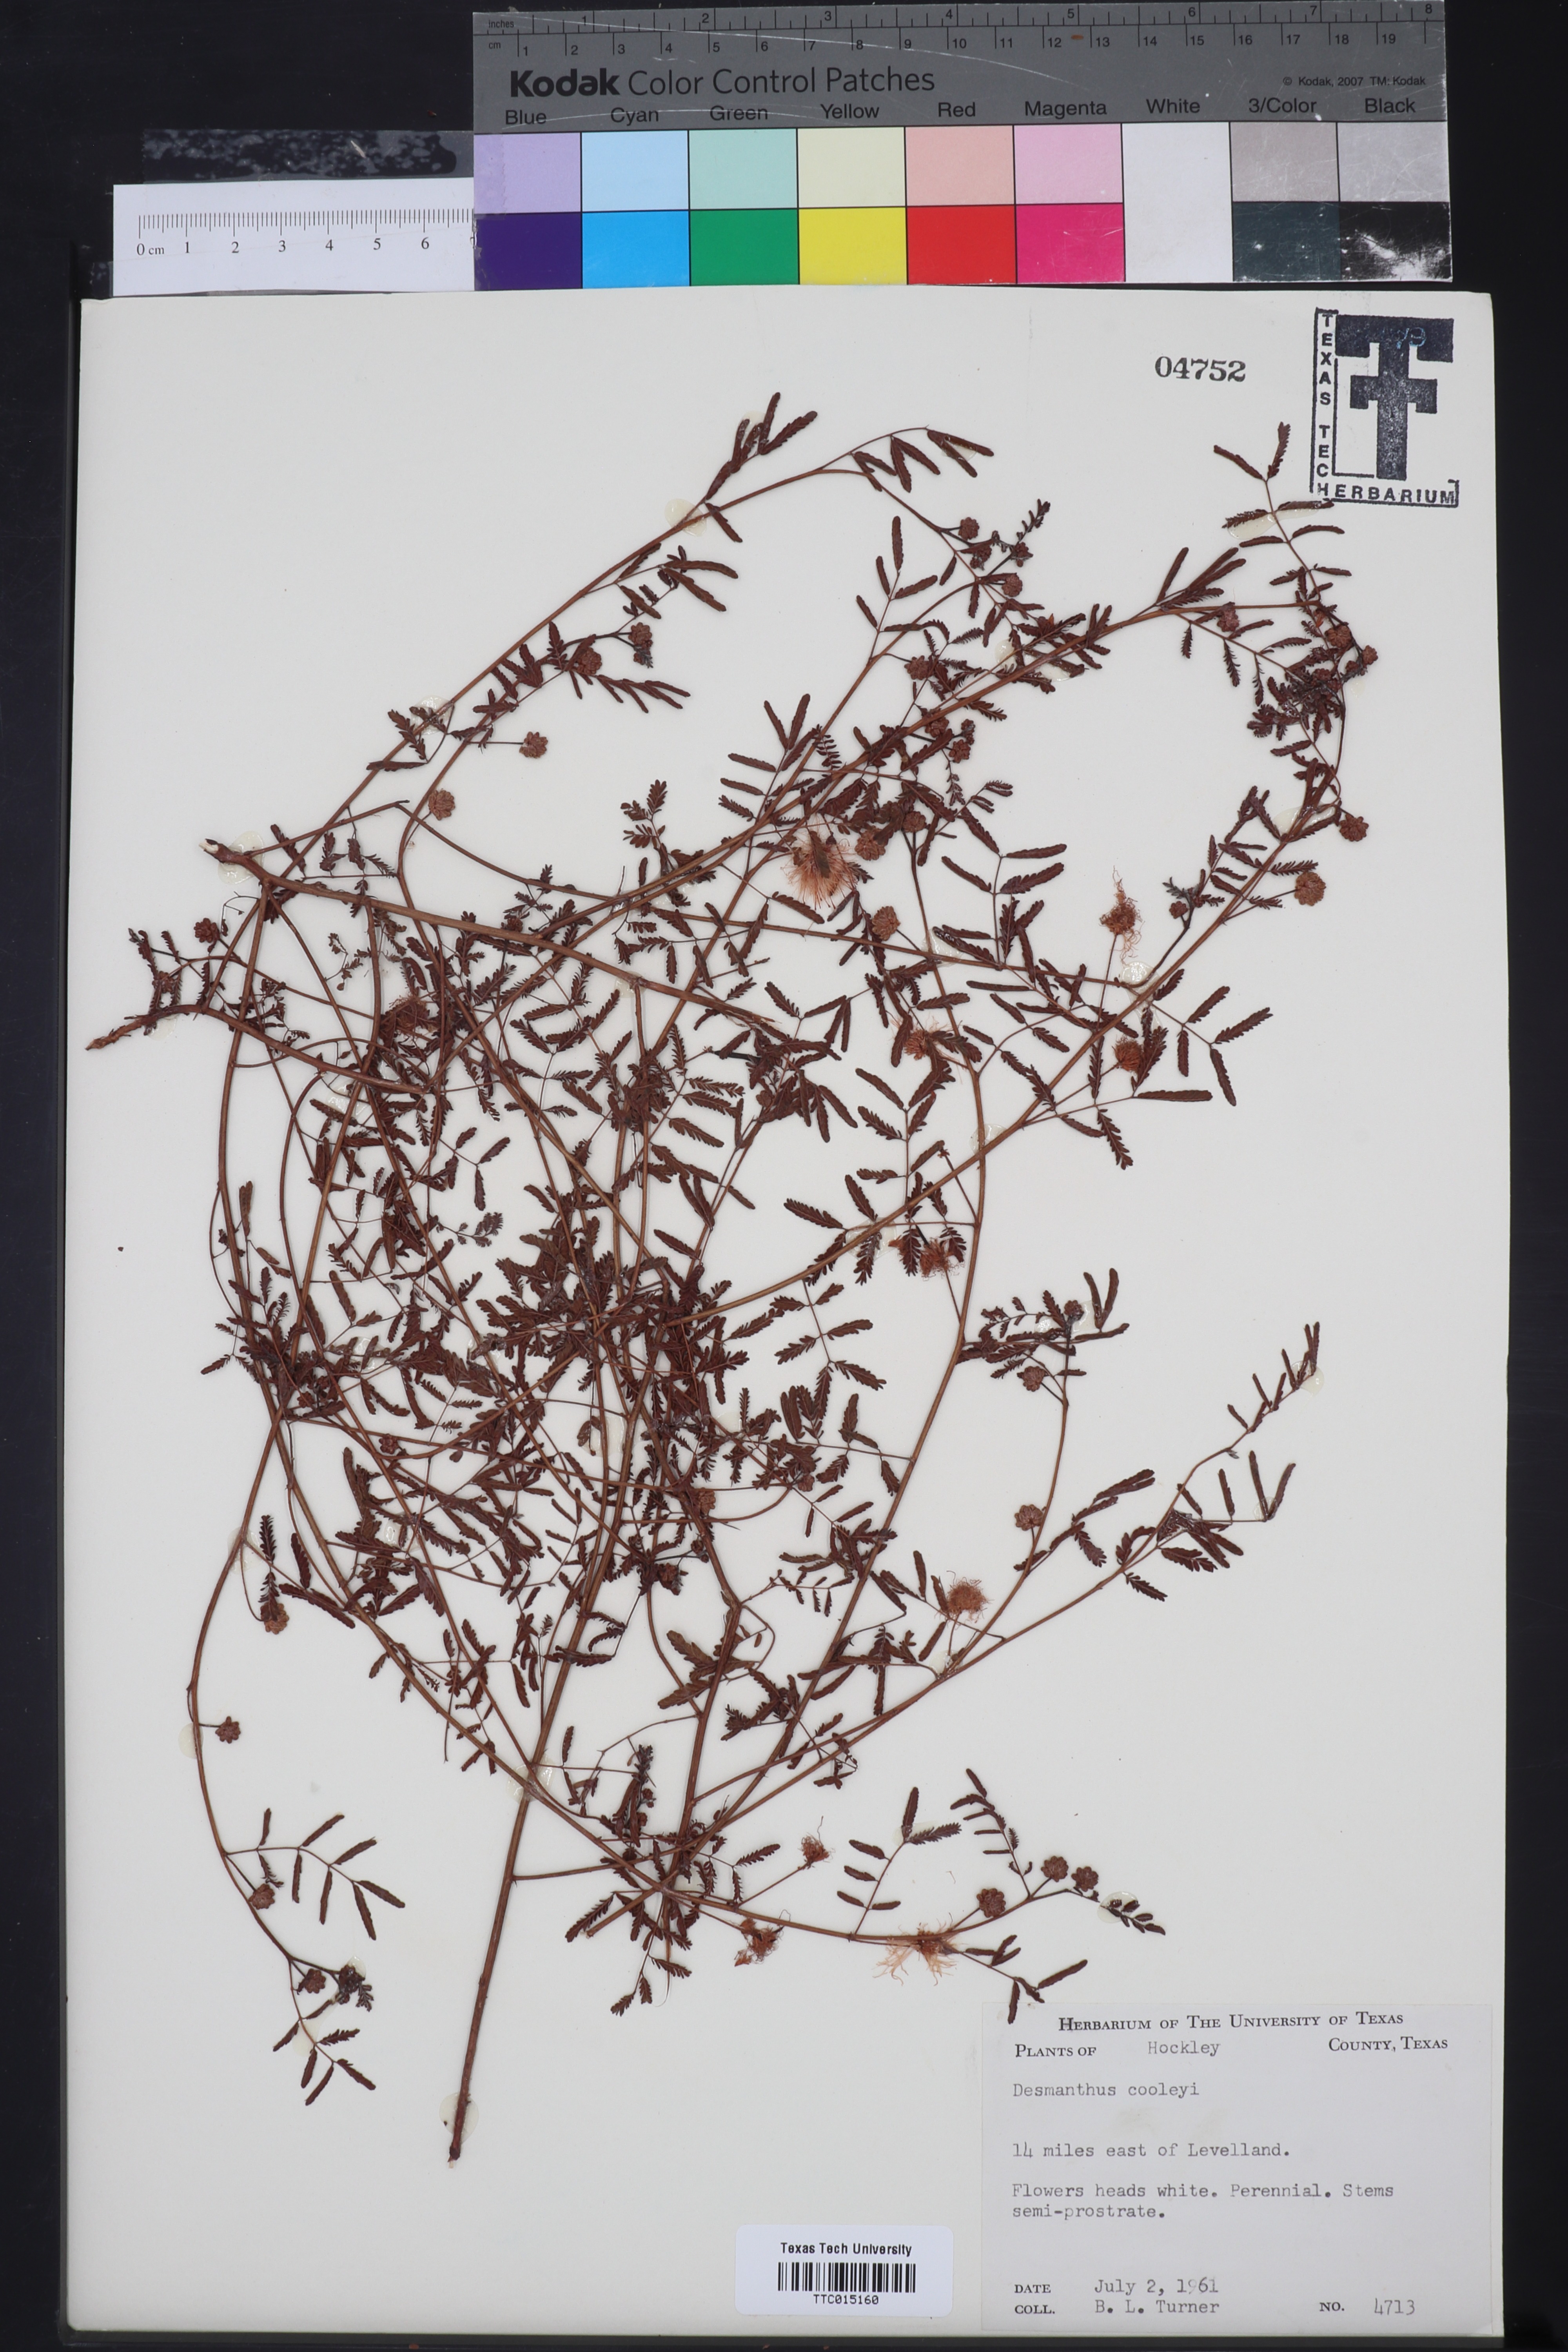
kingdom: Plantae
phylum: Tracheophyta
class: Magnoliopsida
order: Fabales
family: Fabaceae
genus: Desmanthus
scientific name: Desmanthus cooleyi
